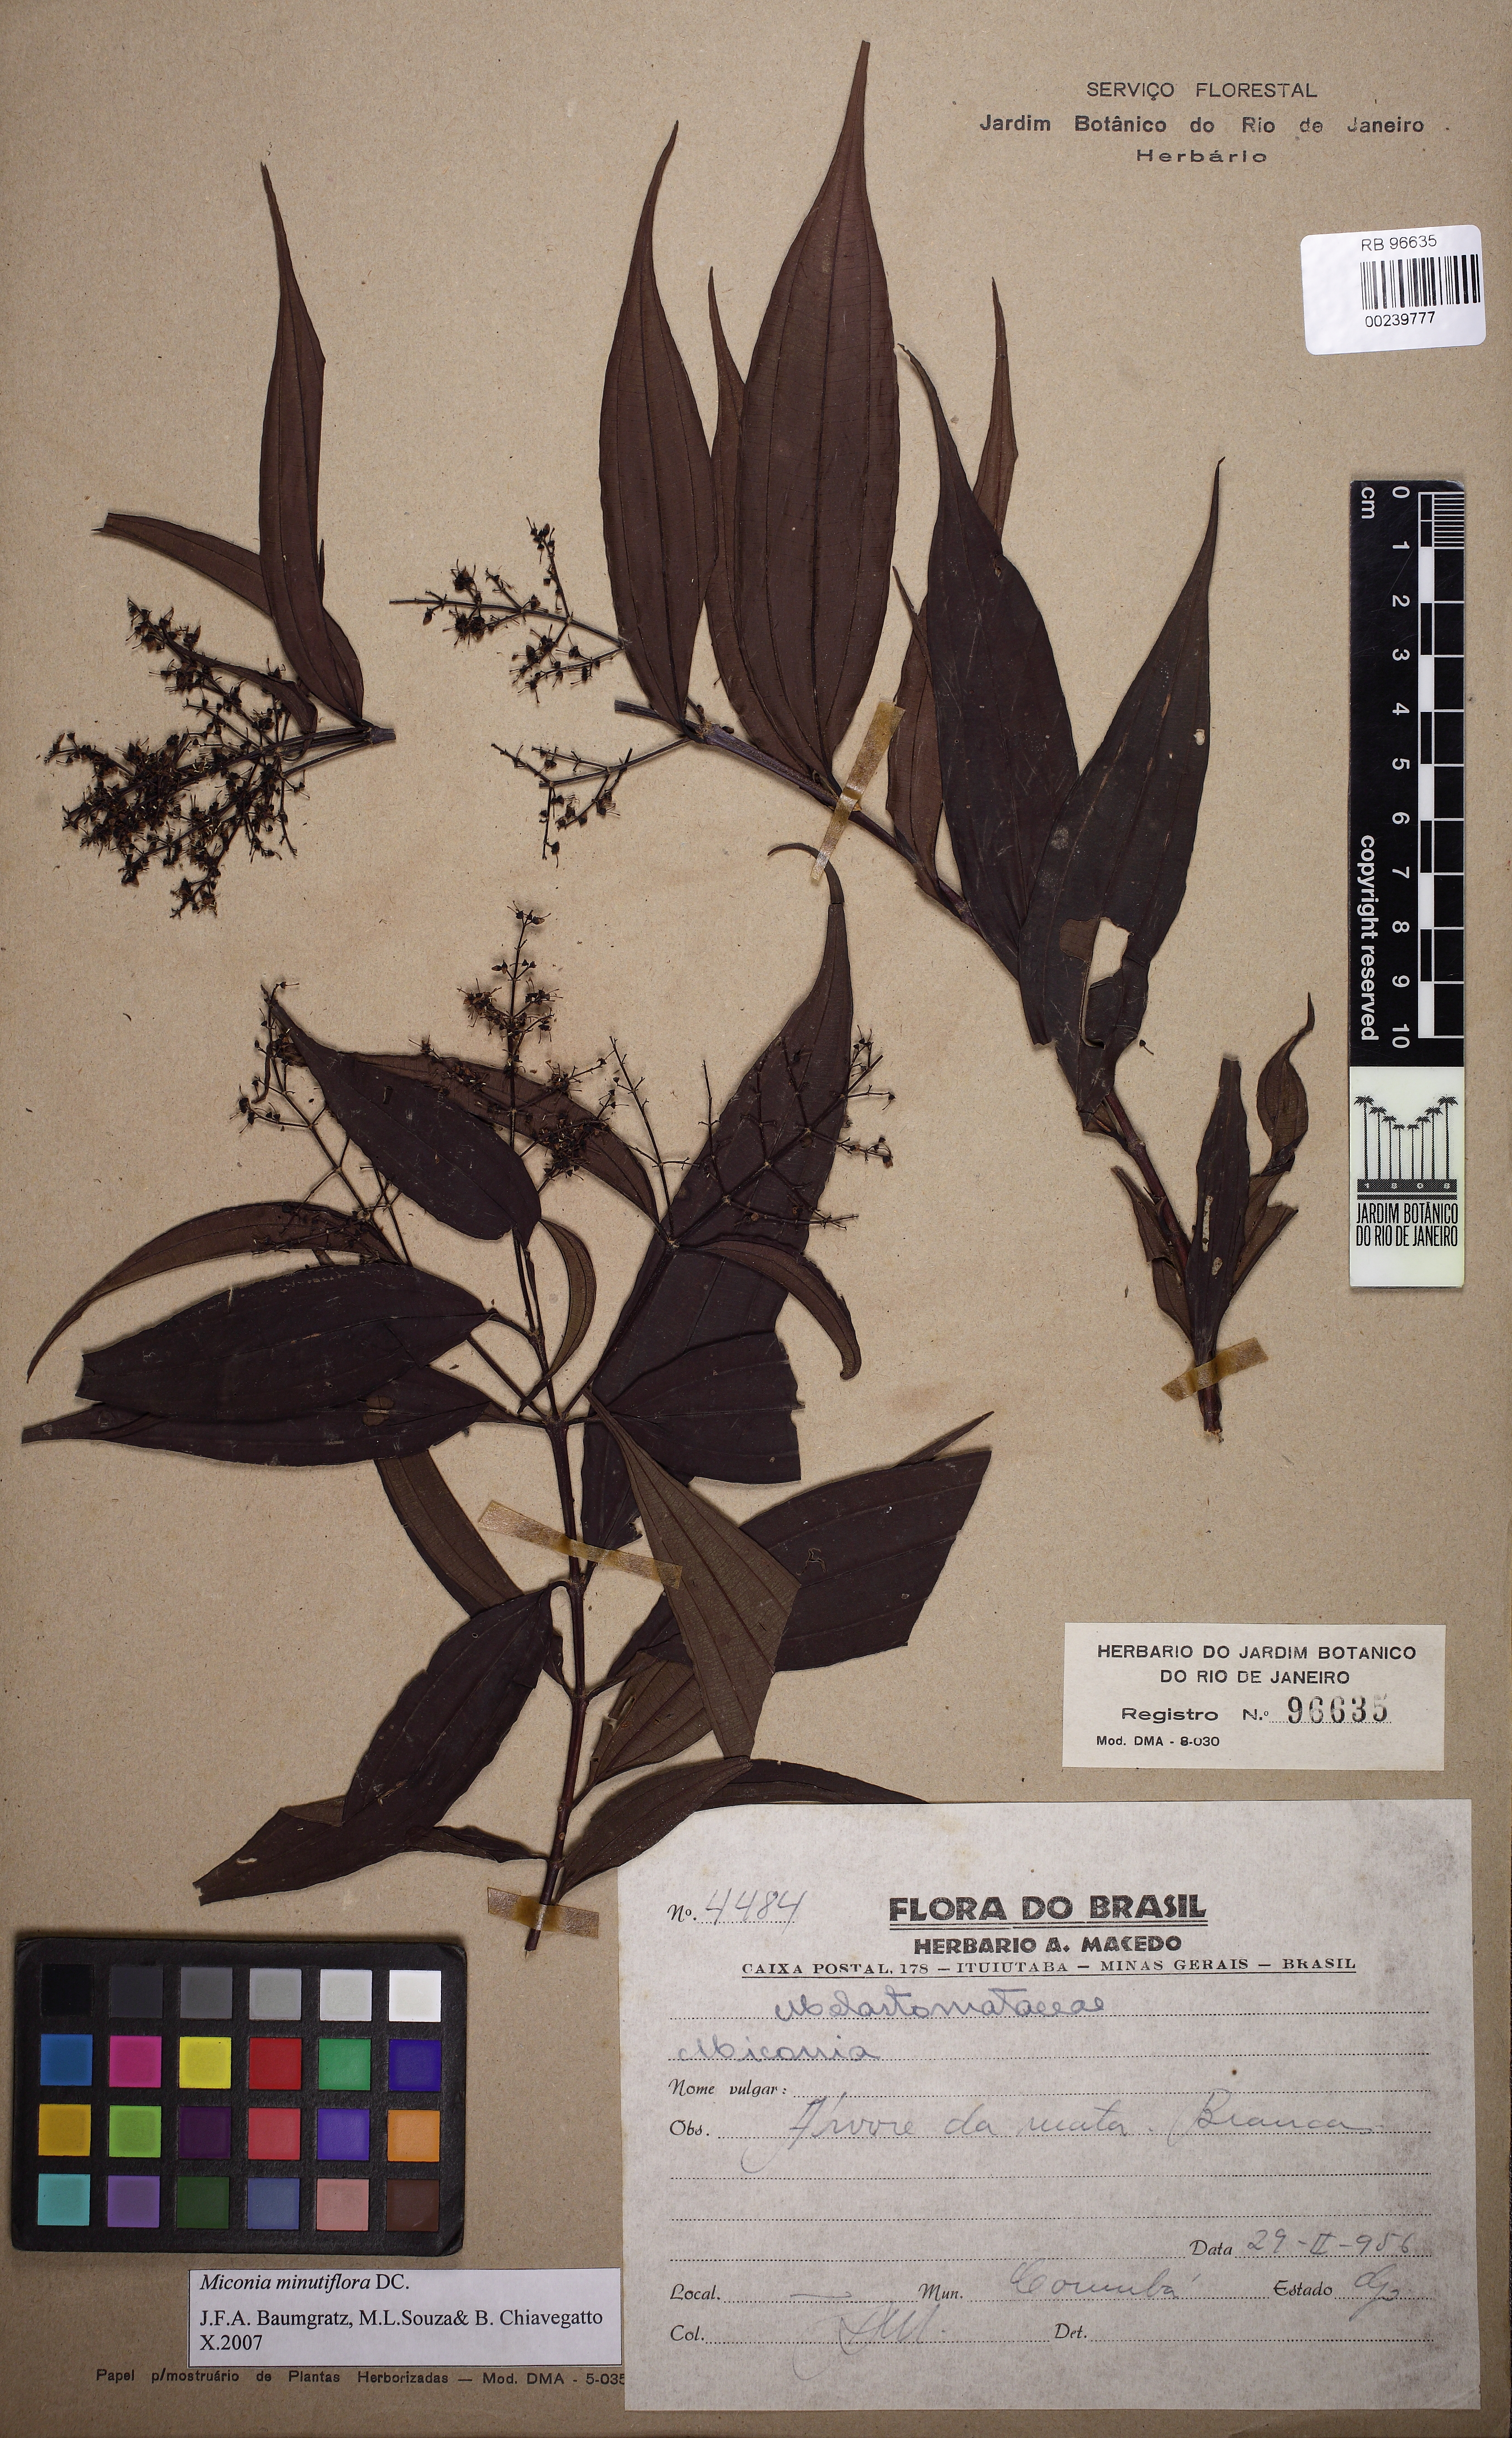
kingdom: Plantae
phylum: Tracheophyta
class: Magnoliopsida
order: Myrtales
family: Melastomataceae
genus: Miconia
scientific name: Miconia minutiflora
